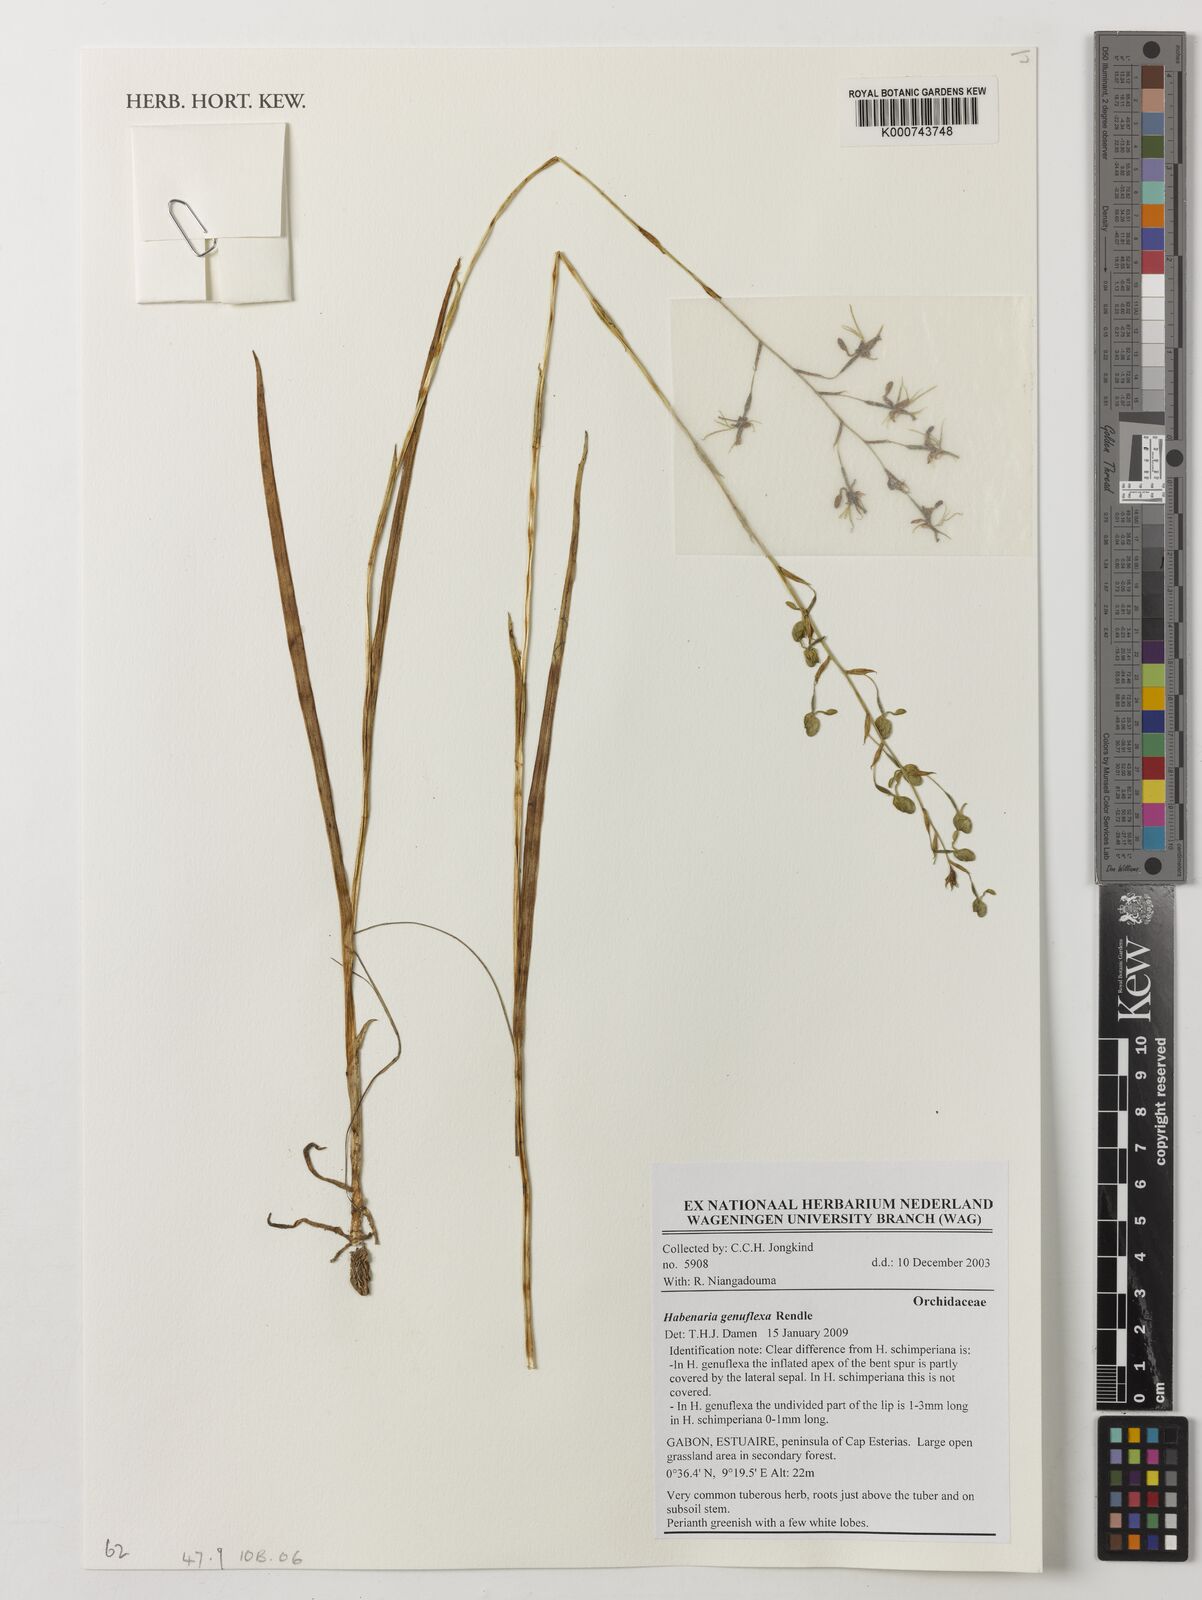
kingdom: Plantae
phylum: Tracheophyta
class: Liliopsida
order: Asparagales
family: Orchidaceae
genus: Habenaria
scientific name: Habenaria genuflexa
